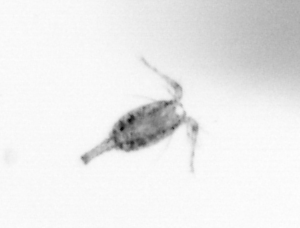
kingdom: Animalia
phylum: Arthropoda
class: Copepoda
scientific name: Copepoda
